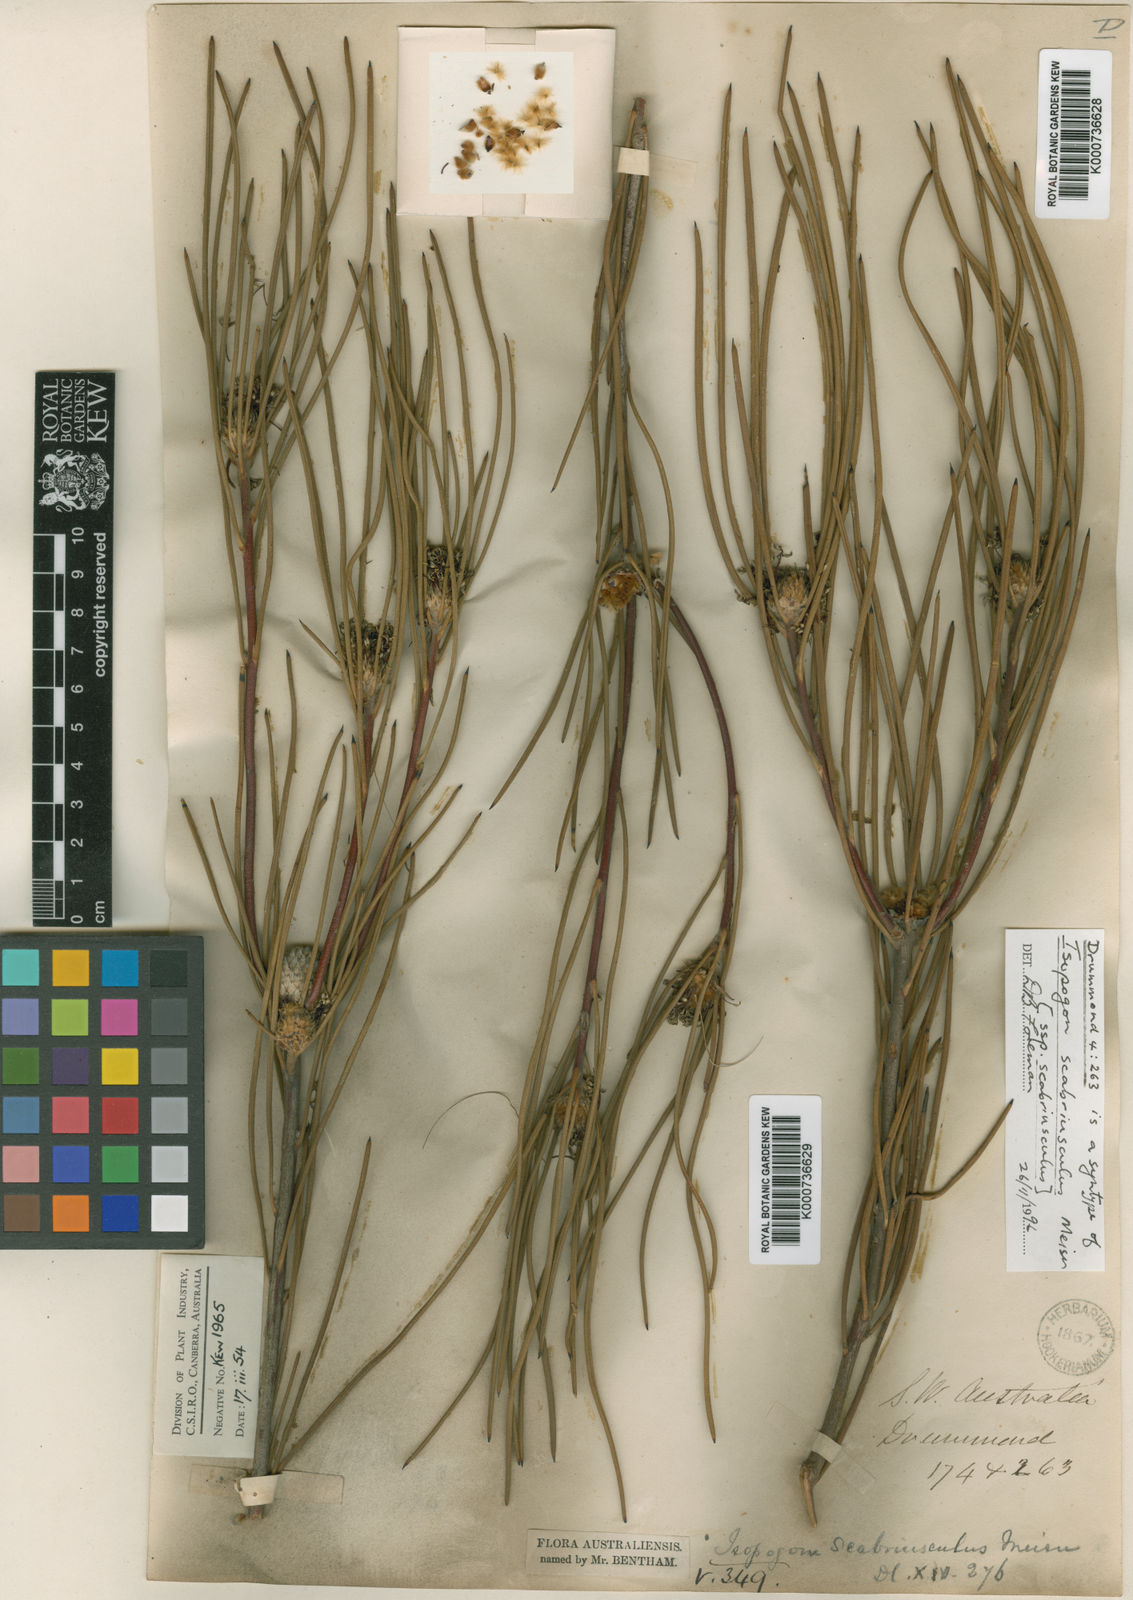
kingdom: Plantae
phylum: Tracheophyta
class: Magnoliopsida
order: Proteales
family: Proteaceae
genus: Isopogon
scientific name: Isopogon scabriusculus
